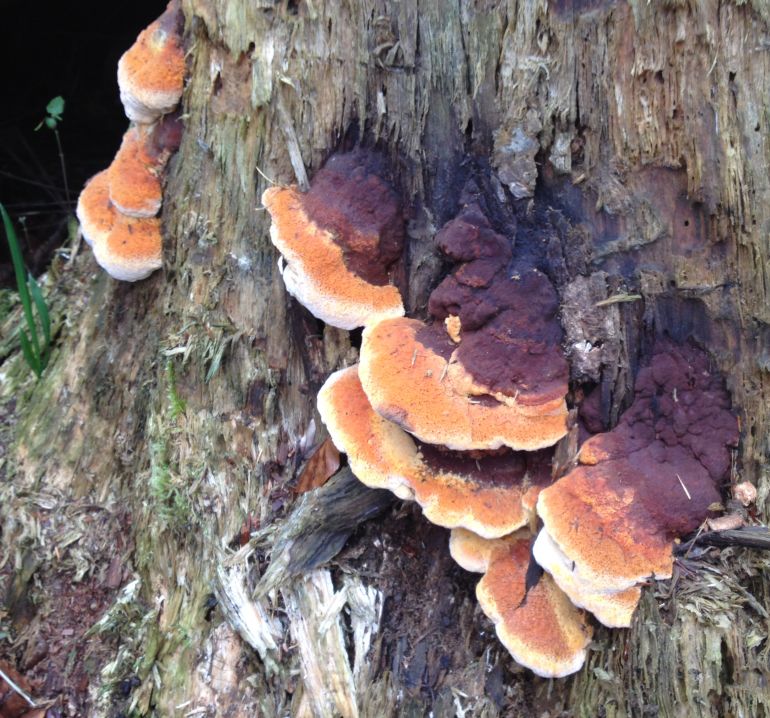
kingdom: Fungi
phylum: Basidiomycota
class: Agaricomycetes
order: Gloeophyllales
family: Gloeophyllaceae
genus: Gloeophyllum
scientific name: Gloeophyllum odoratum
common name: duftende korkhat
